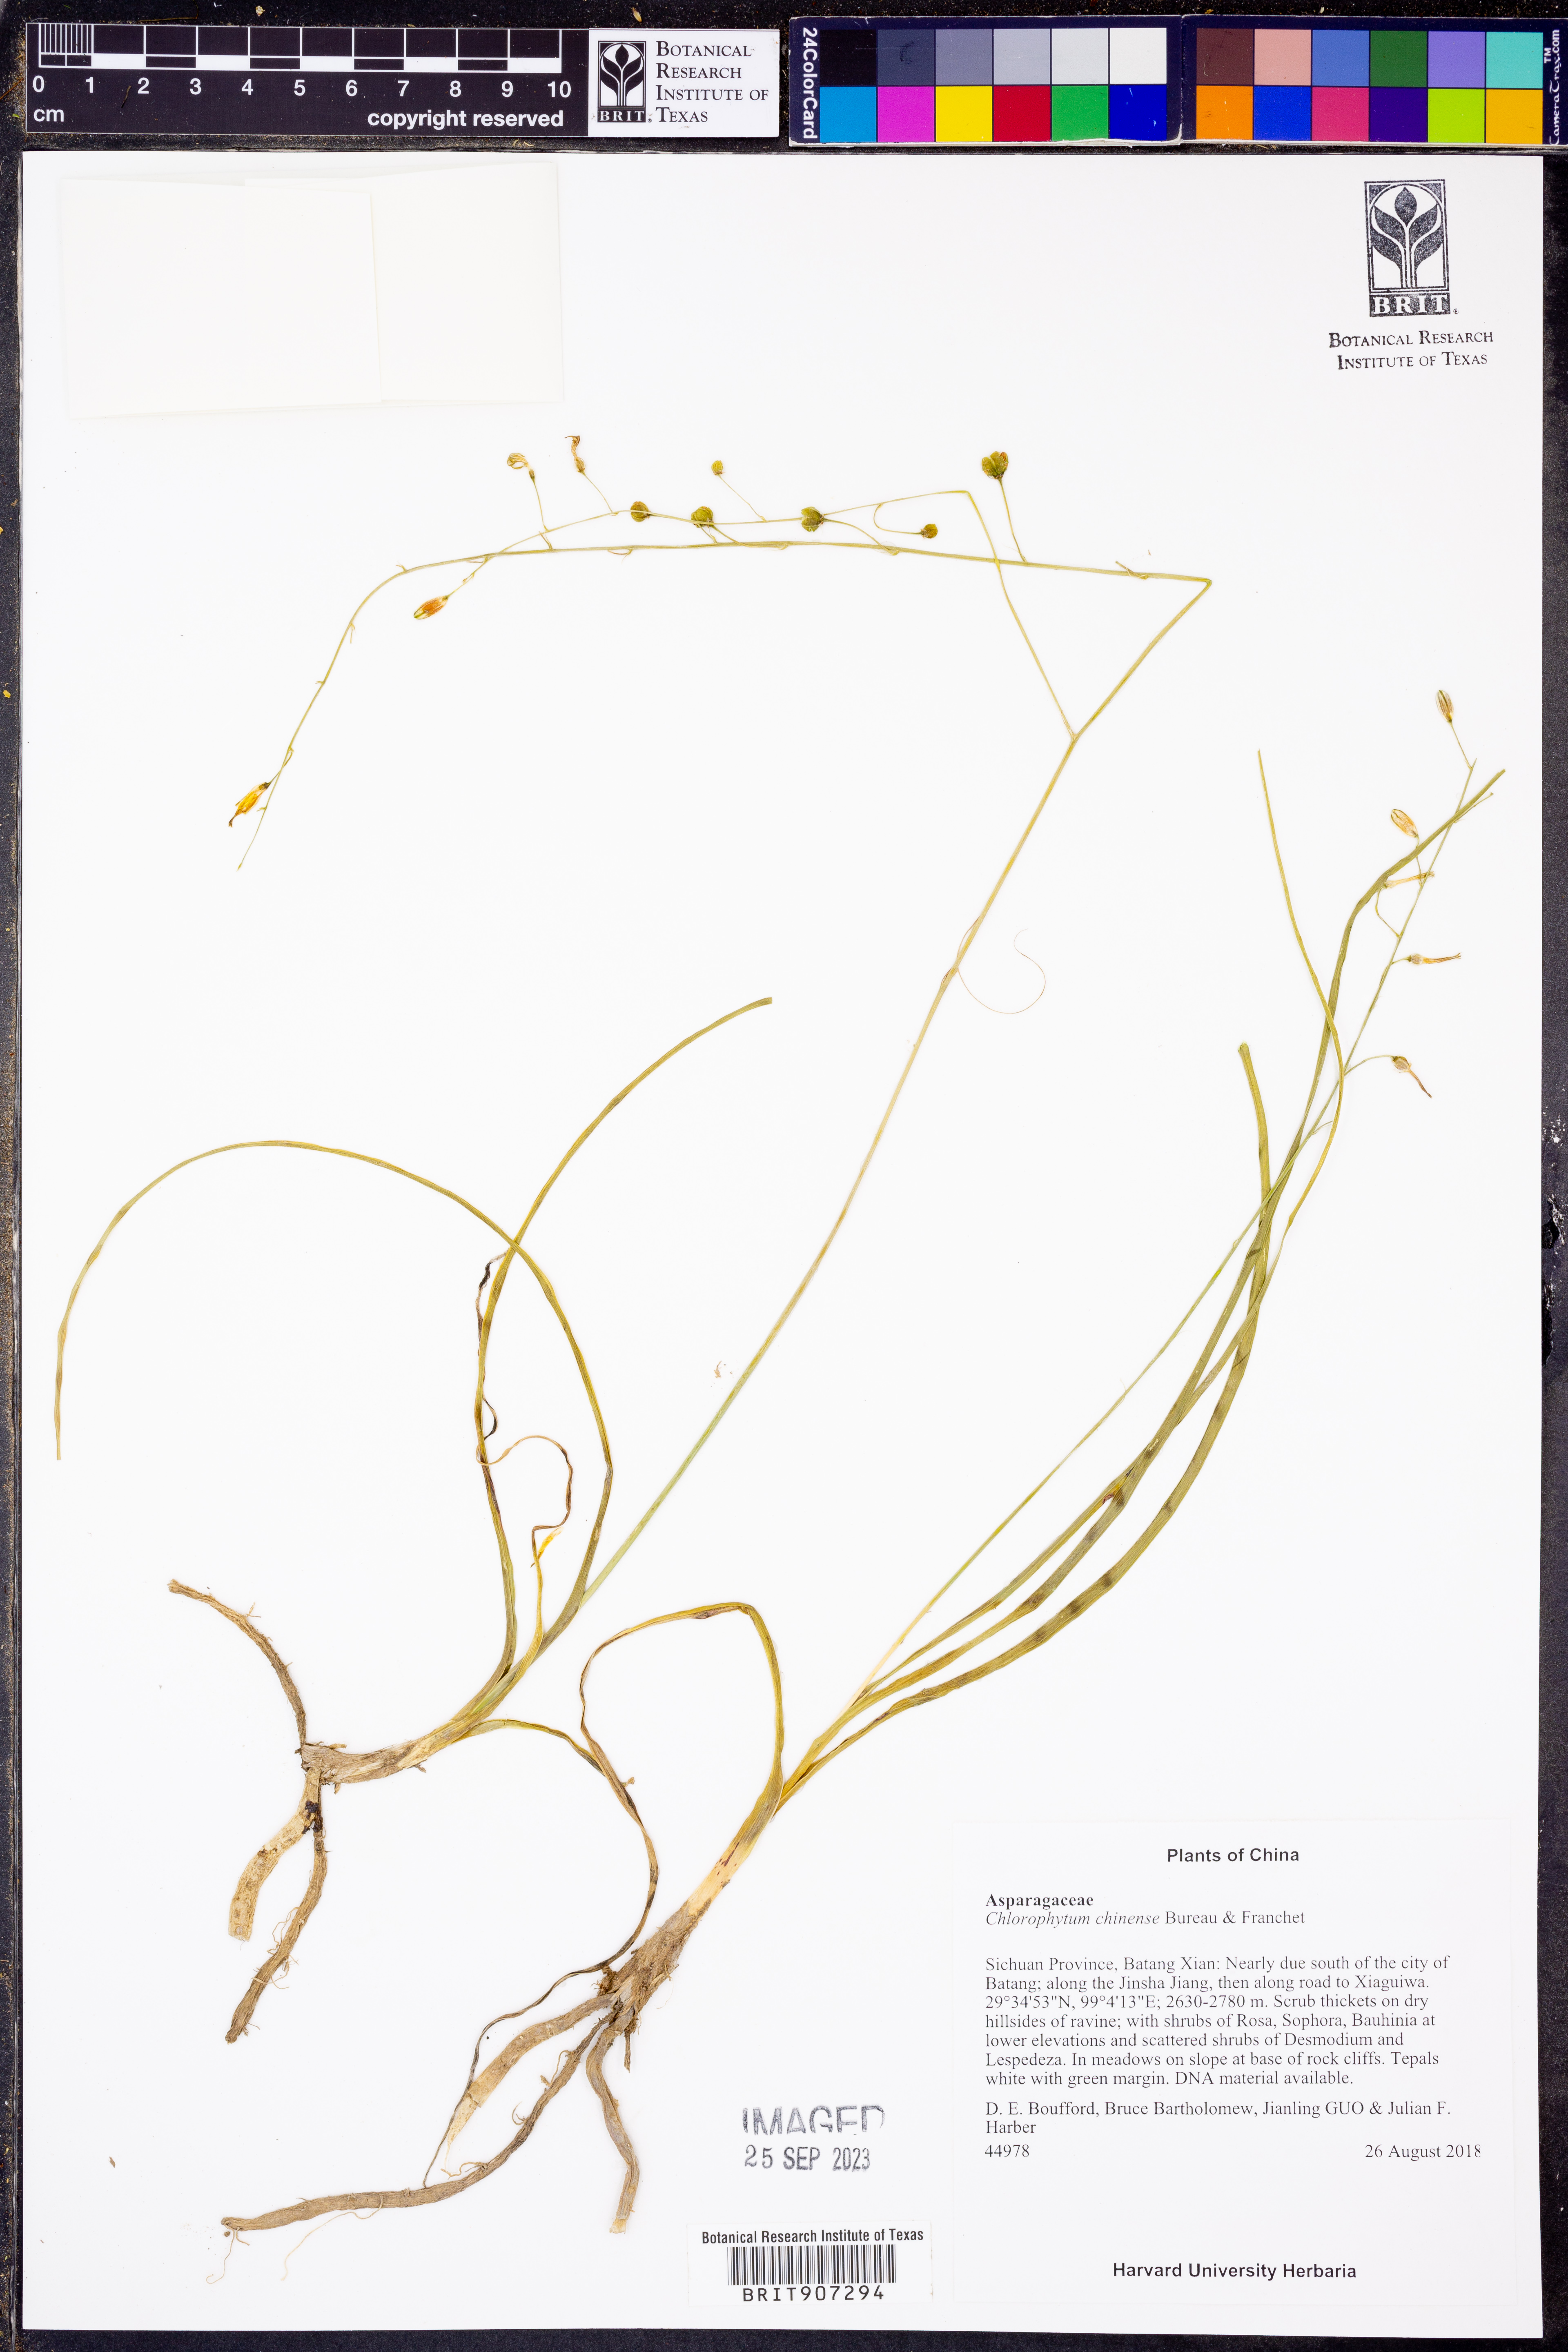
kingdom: Plantae
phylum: Tracheophyta
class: Liliopsida
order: Asparagales
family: Asparagaceae
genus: Chlorophytum
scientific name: Chlorophytum chinense
